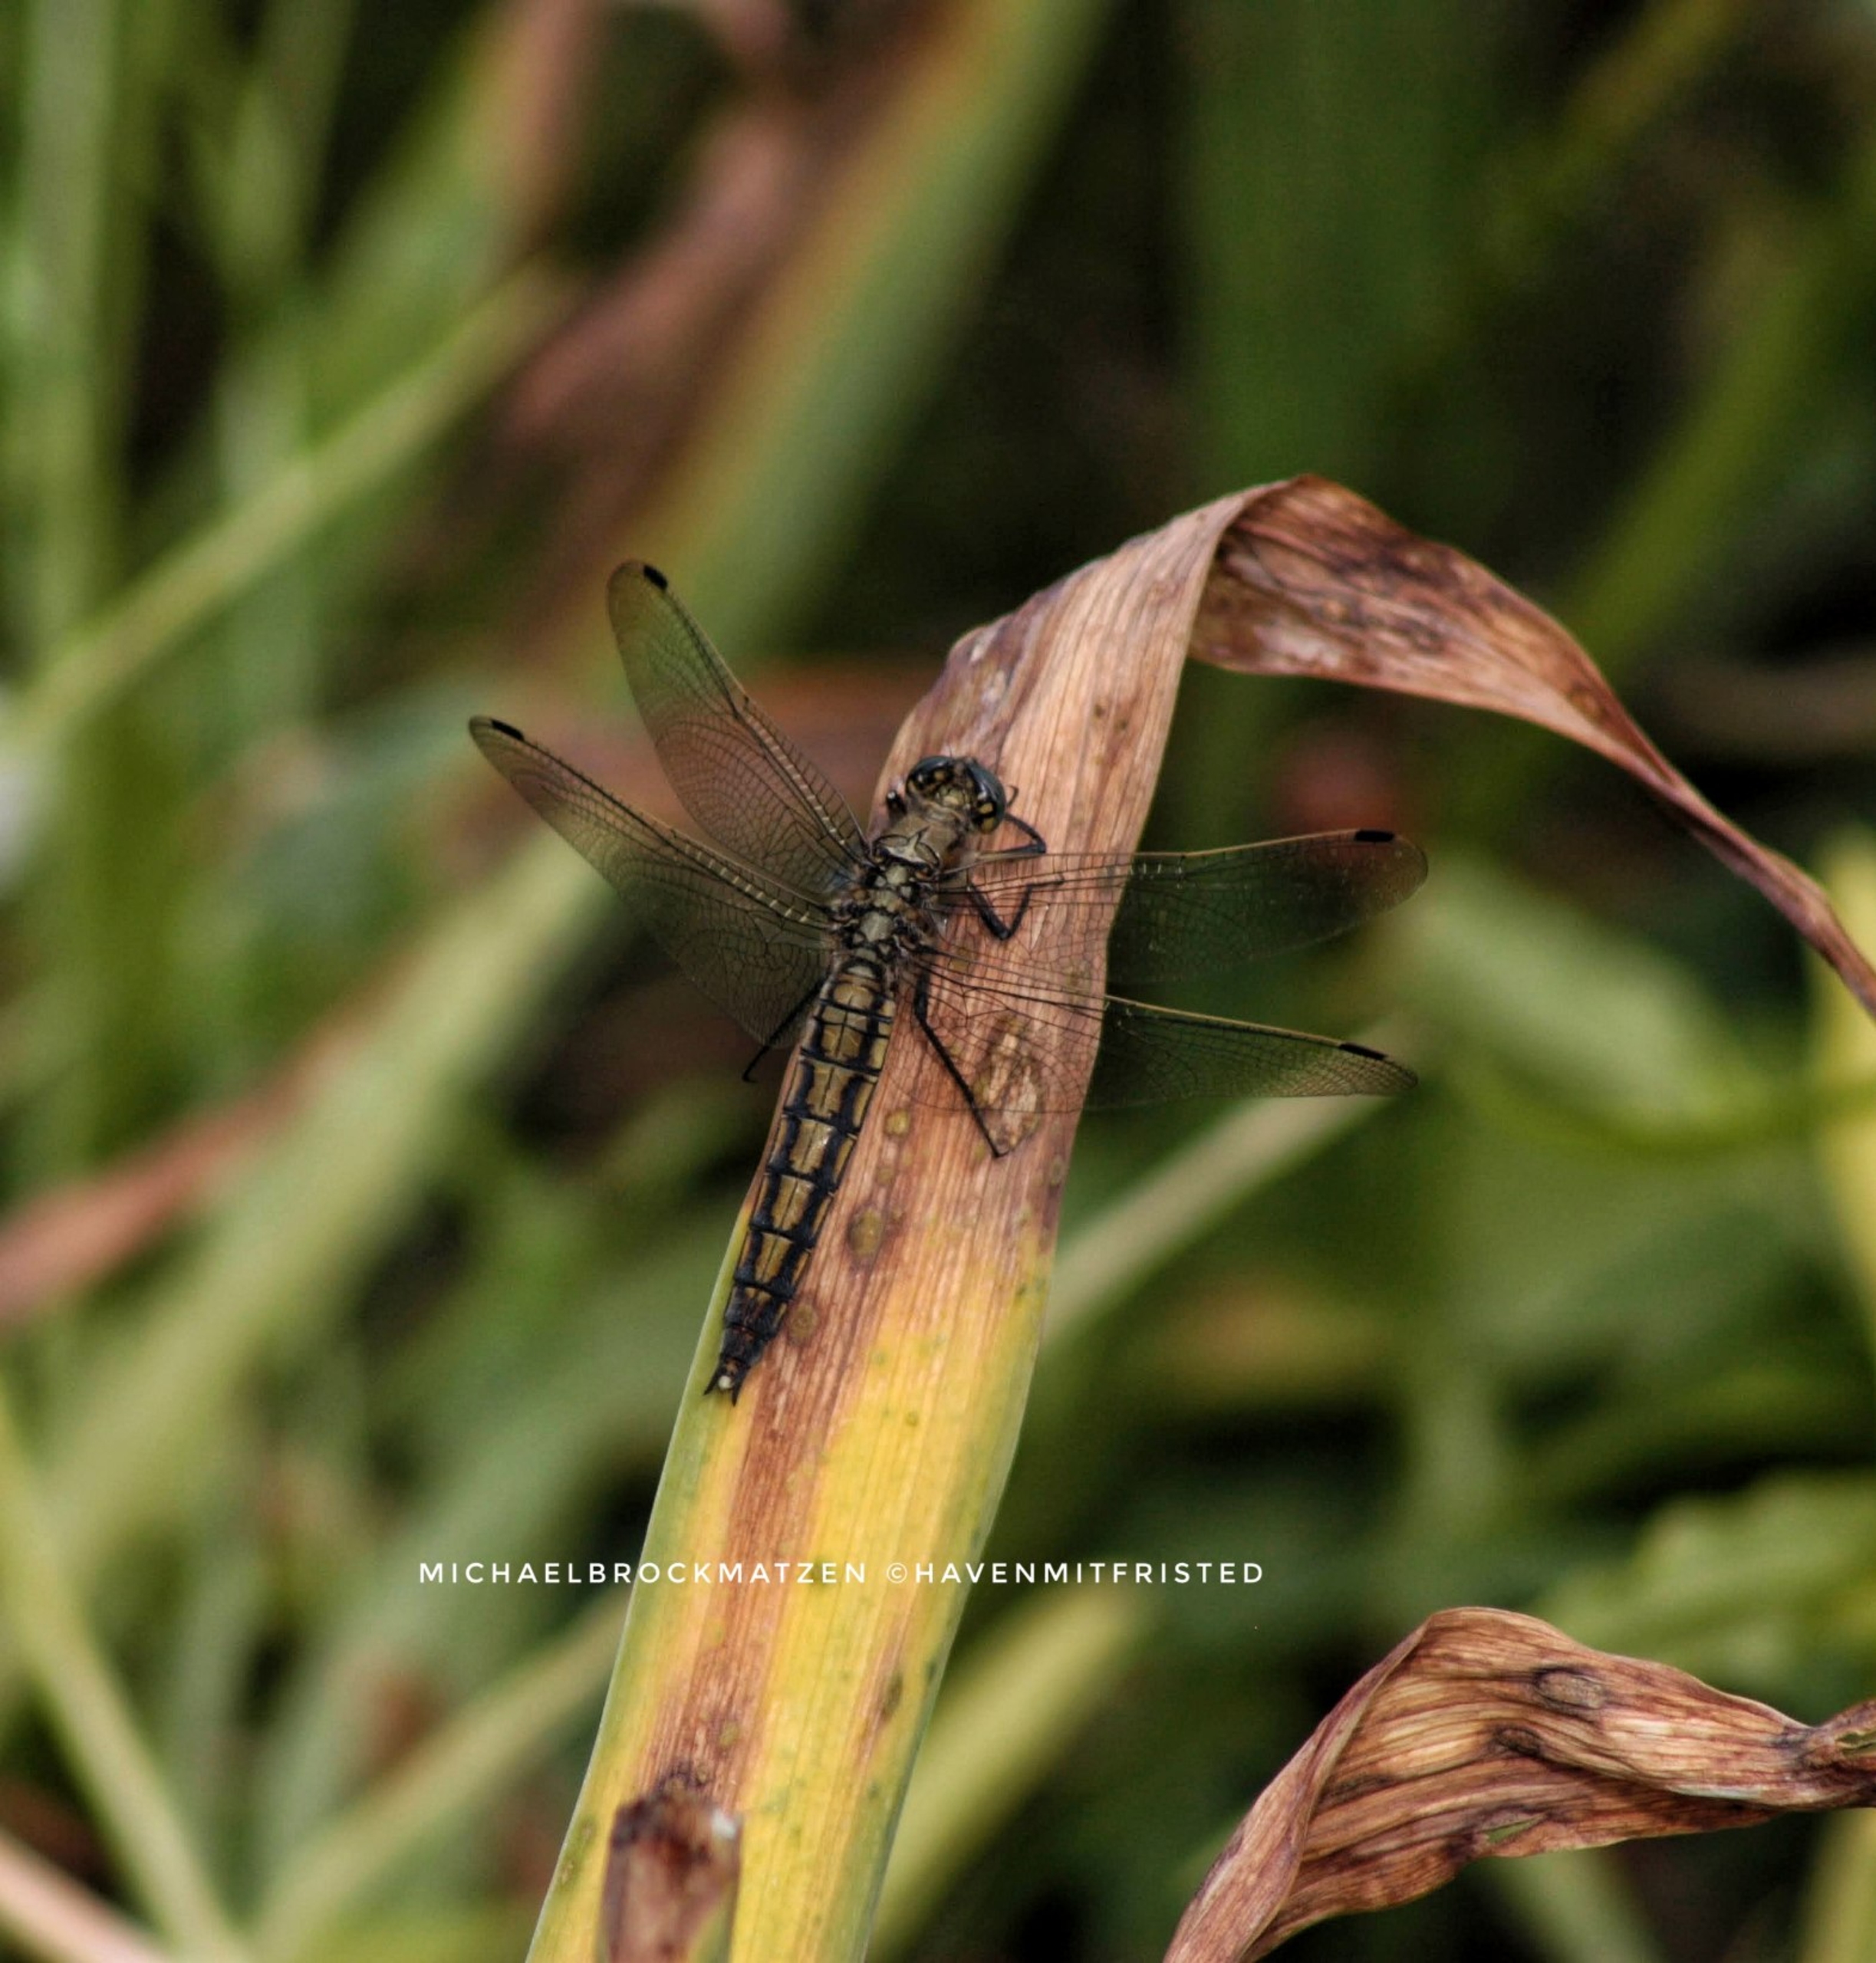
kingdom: Animalia
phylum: Arthropoda
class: Insecta
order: Odonata
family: Libellulidae
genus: Orthetrum
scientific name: Orthetrum cancellatum
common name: Stor blåpil
